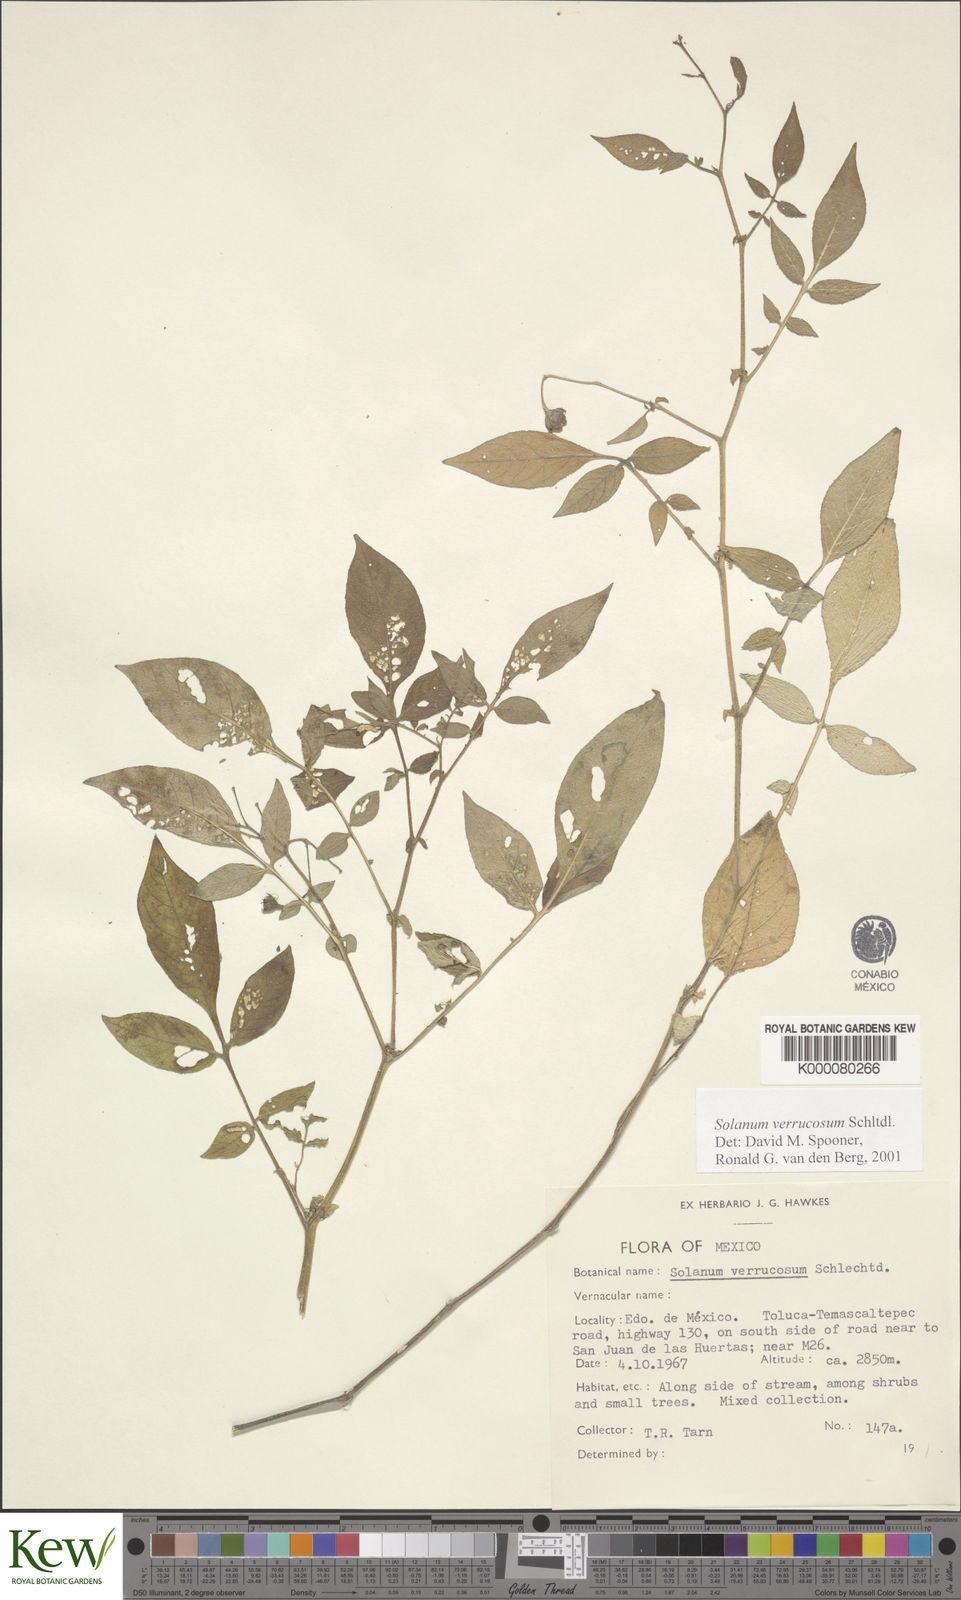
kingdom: Plantae
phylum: Tracheophyta
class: Magnoliopsida
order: Solanales
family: Solanaceae
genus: Solanum
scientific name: Solanum verrucosum
